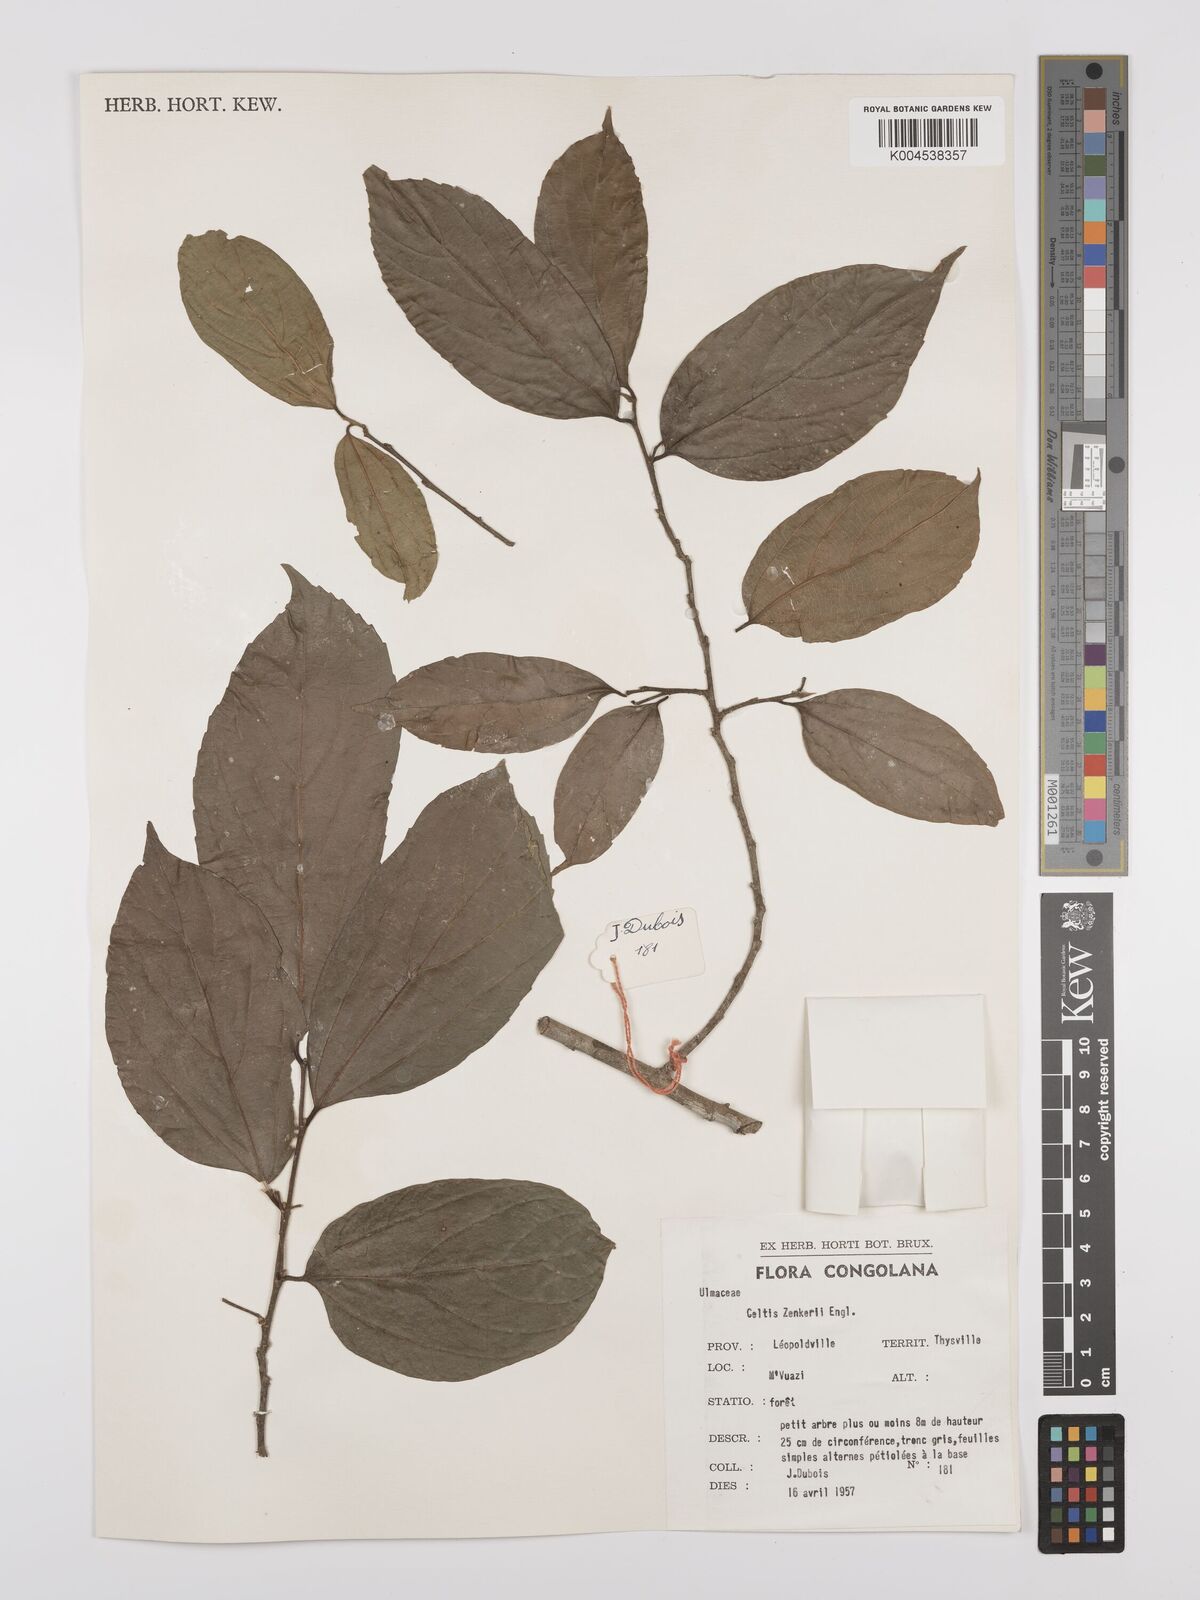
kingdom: Plantae
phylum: Tracheophyta
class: Magnoliopsida
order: Rosales
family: Cannabaceae
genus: Celtis
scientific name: Celtis zenkeri
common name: African celtis
